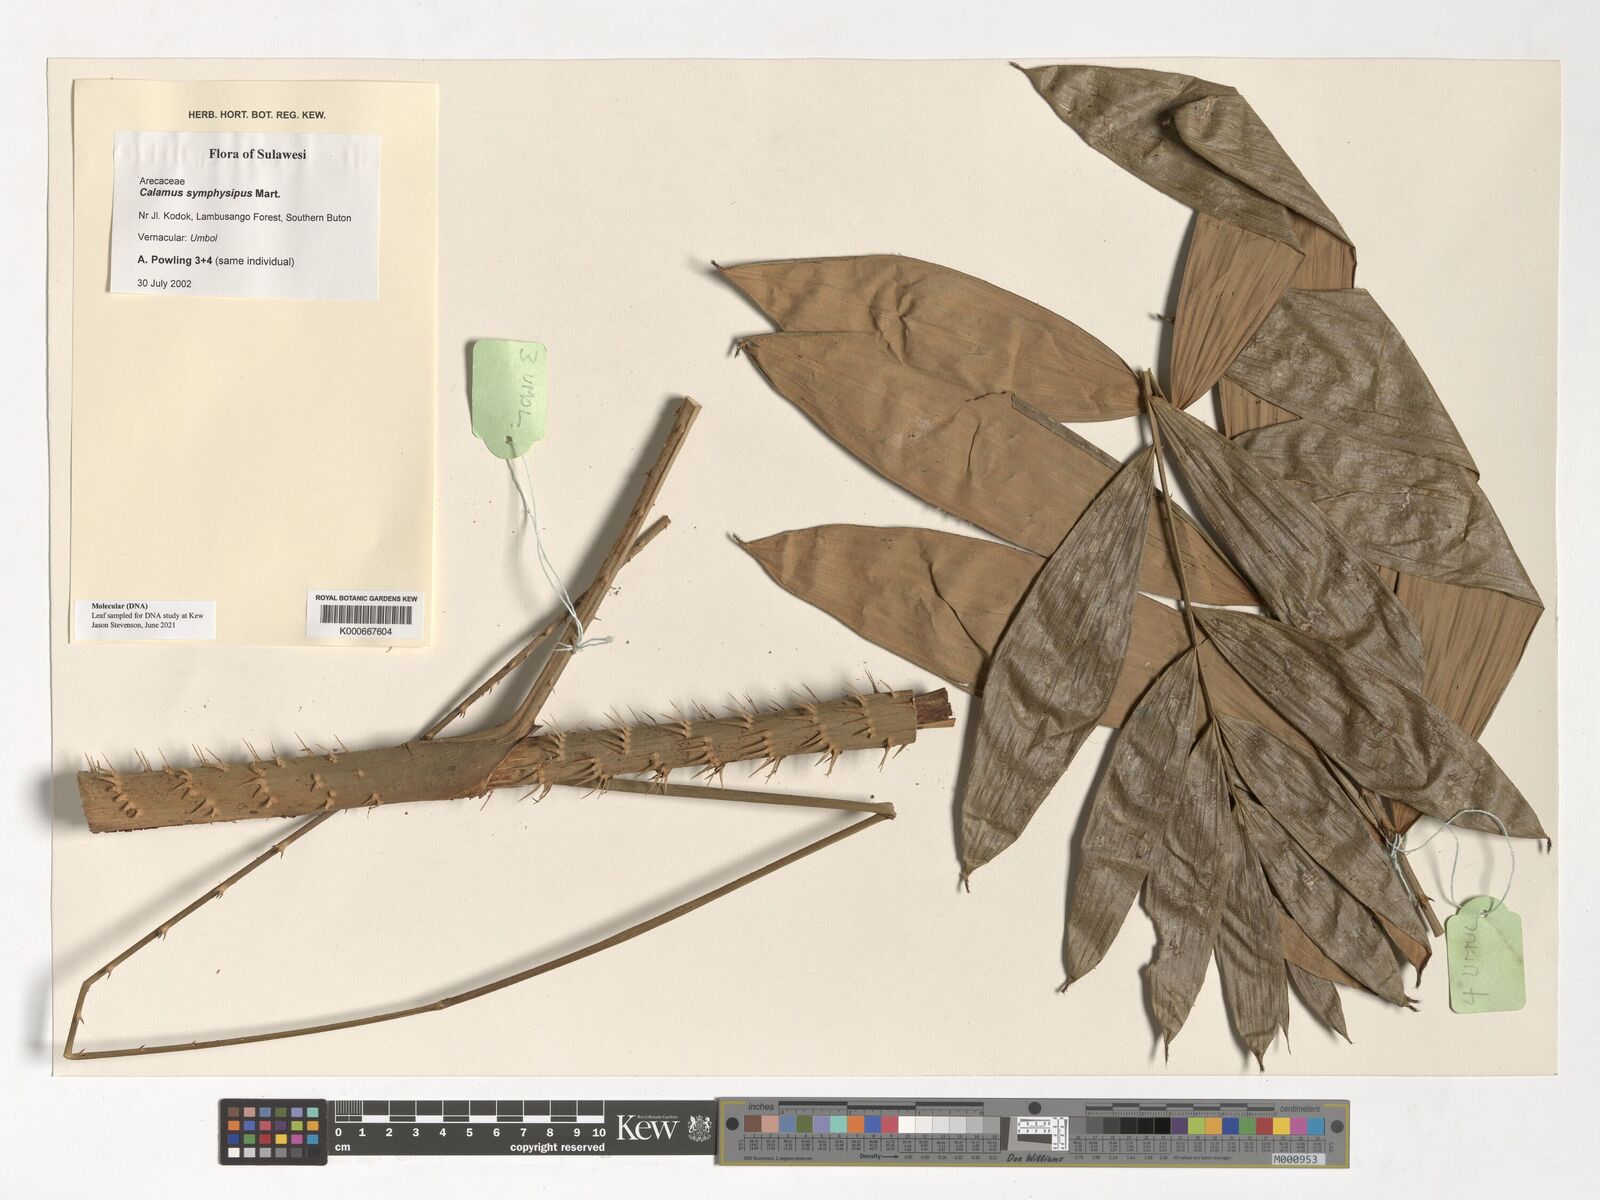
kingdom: Plantae
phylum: Tracheophyta
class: Liliopsida
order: Arecales
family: Arecaceae
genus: Calamus
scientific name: Calamus symphysipus
